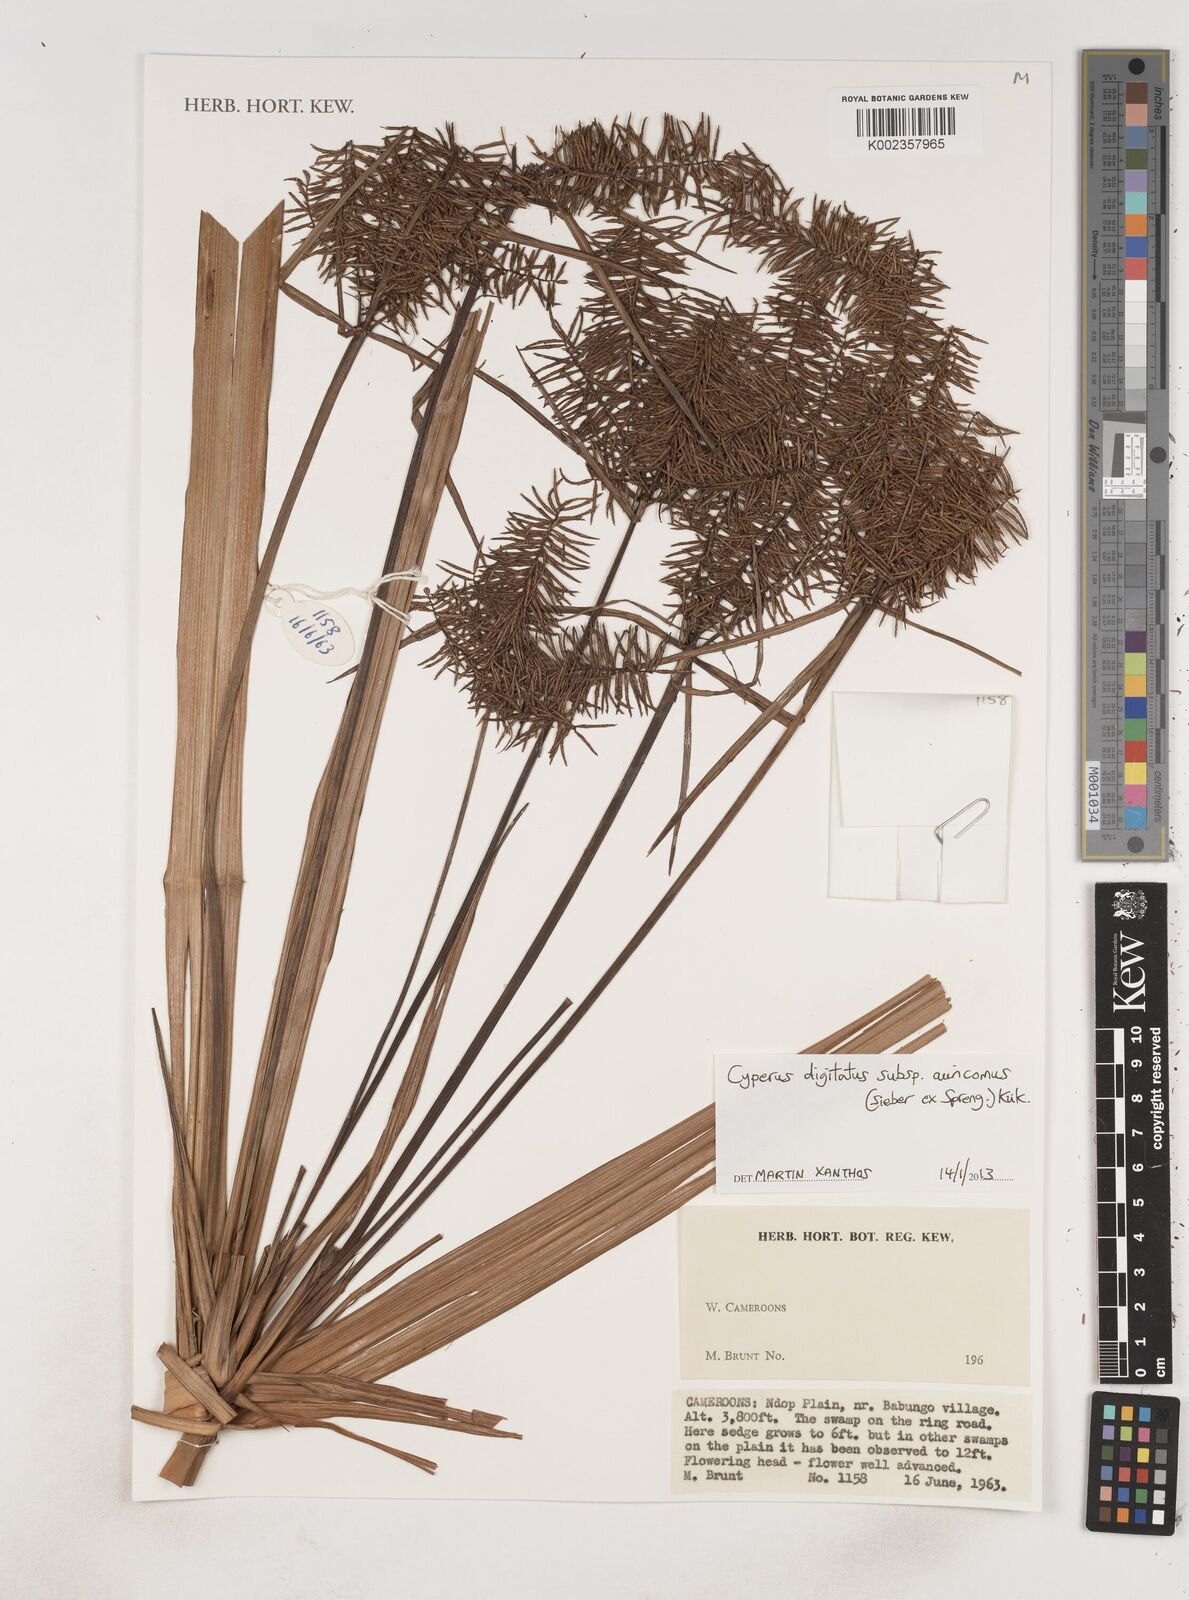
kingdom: Plantae
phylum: Tracheophyta
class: Liliopsida
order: Poales
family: Cyperaceae
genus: Cyperus
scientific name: Cyperus digitatus
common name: Finger flatsedge
